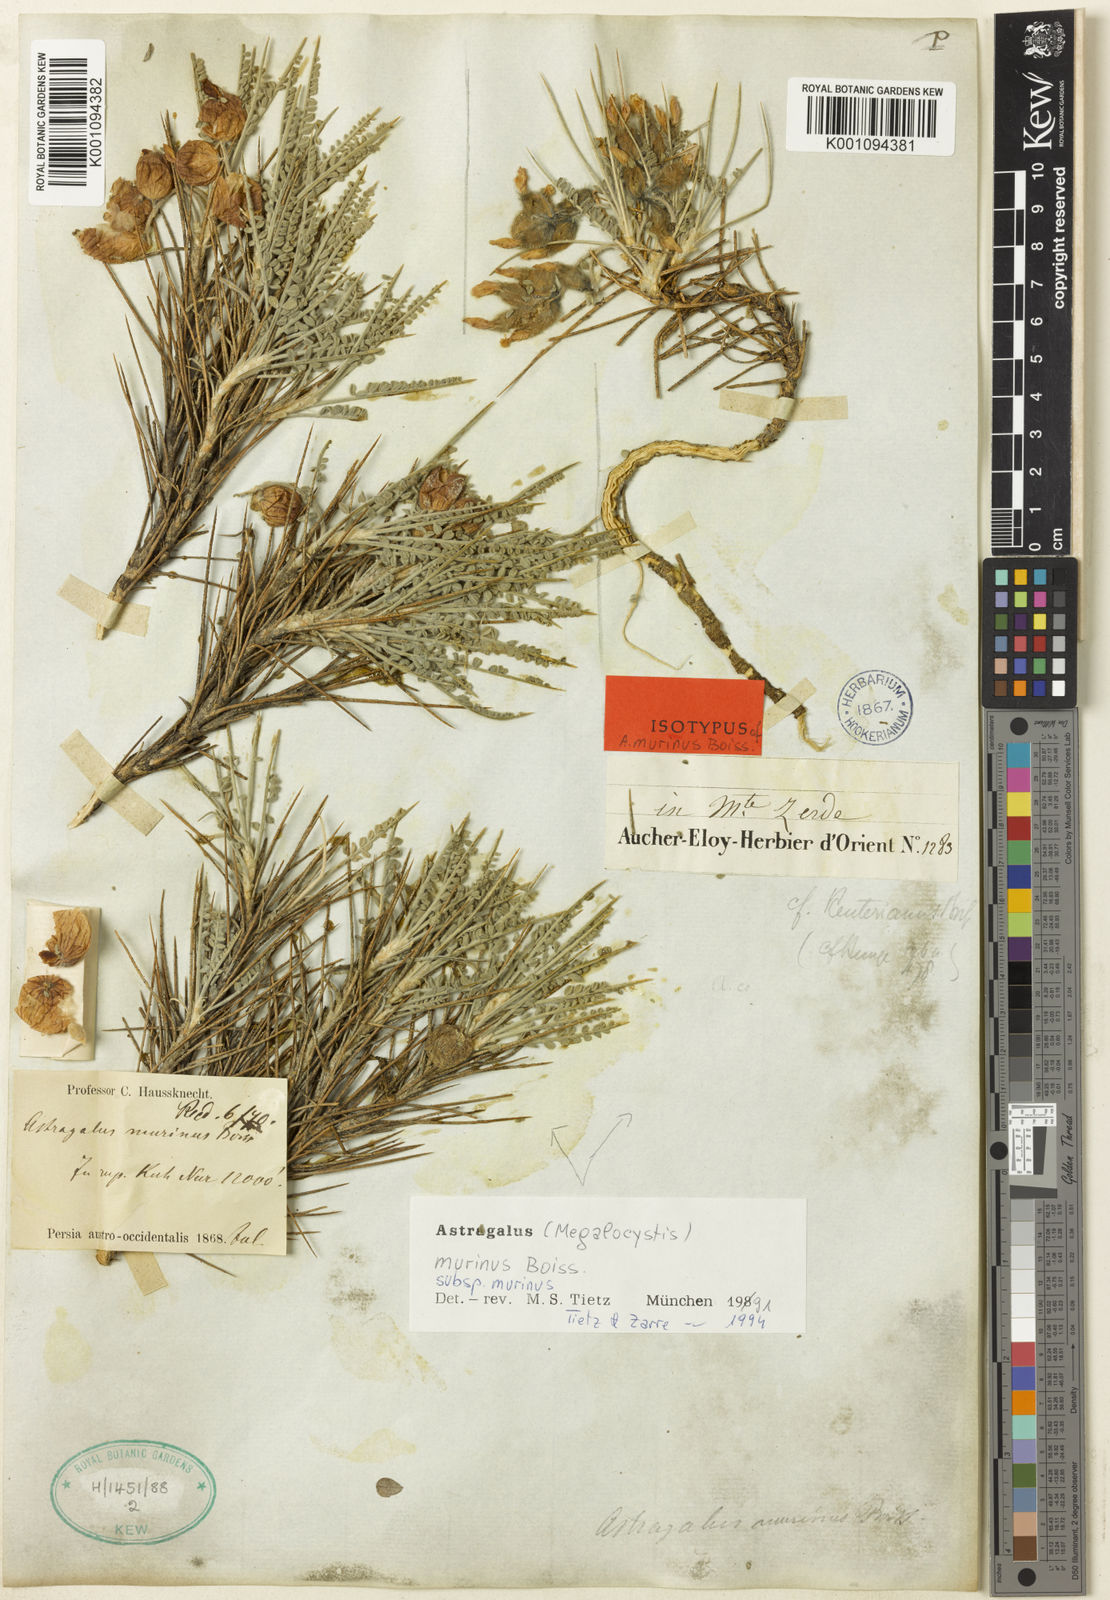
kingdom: Plantae
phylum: Tracheophyta
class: Magnoliopsida
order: Fabales
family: Fabaceae
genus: Astragalus
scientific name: Astragalus murinus
